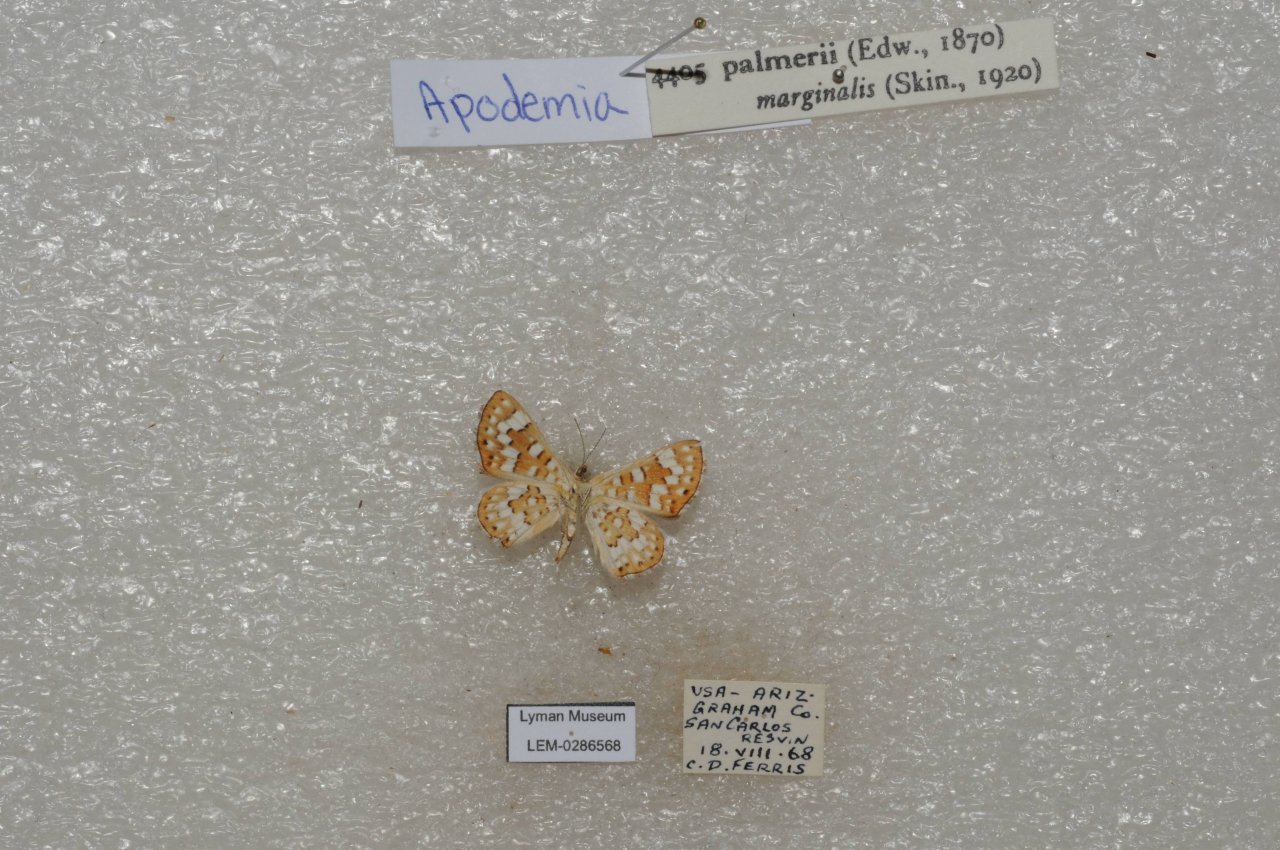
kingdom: Animalia
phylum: Arthropoda
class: Insecta
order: Lepidoptera
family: Riodinidae
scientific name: Riodinidae
